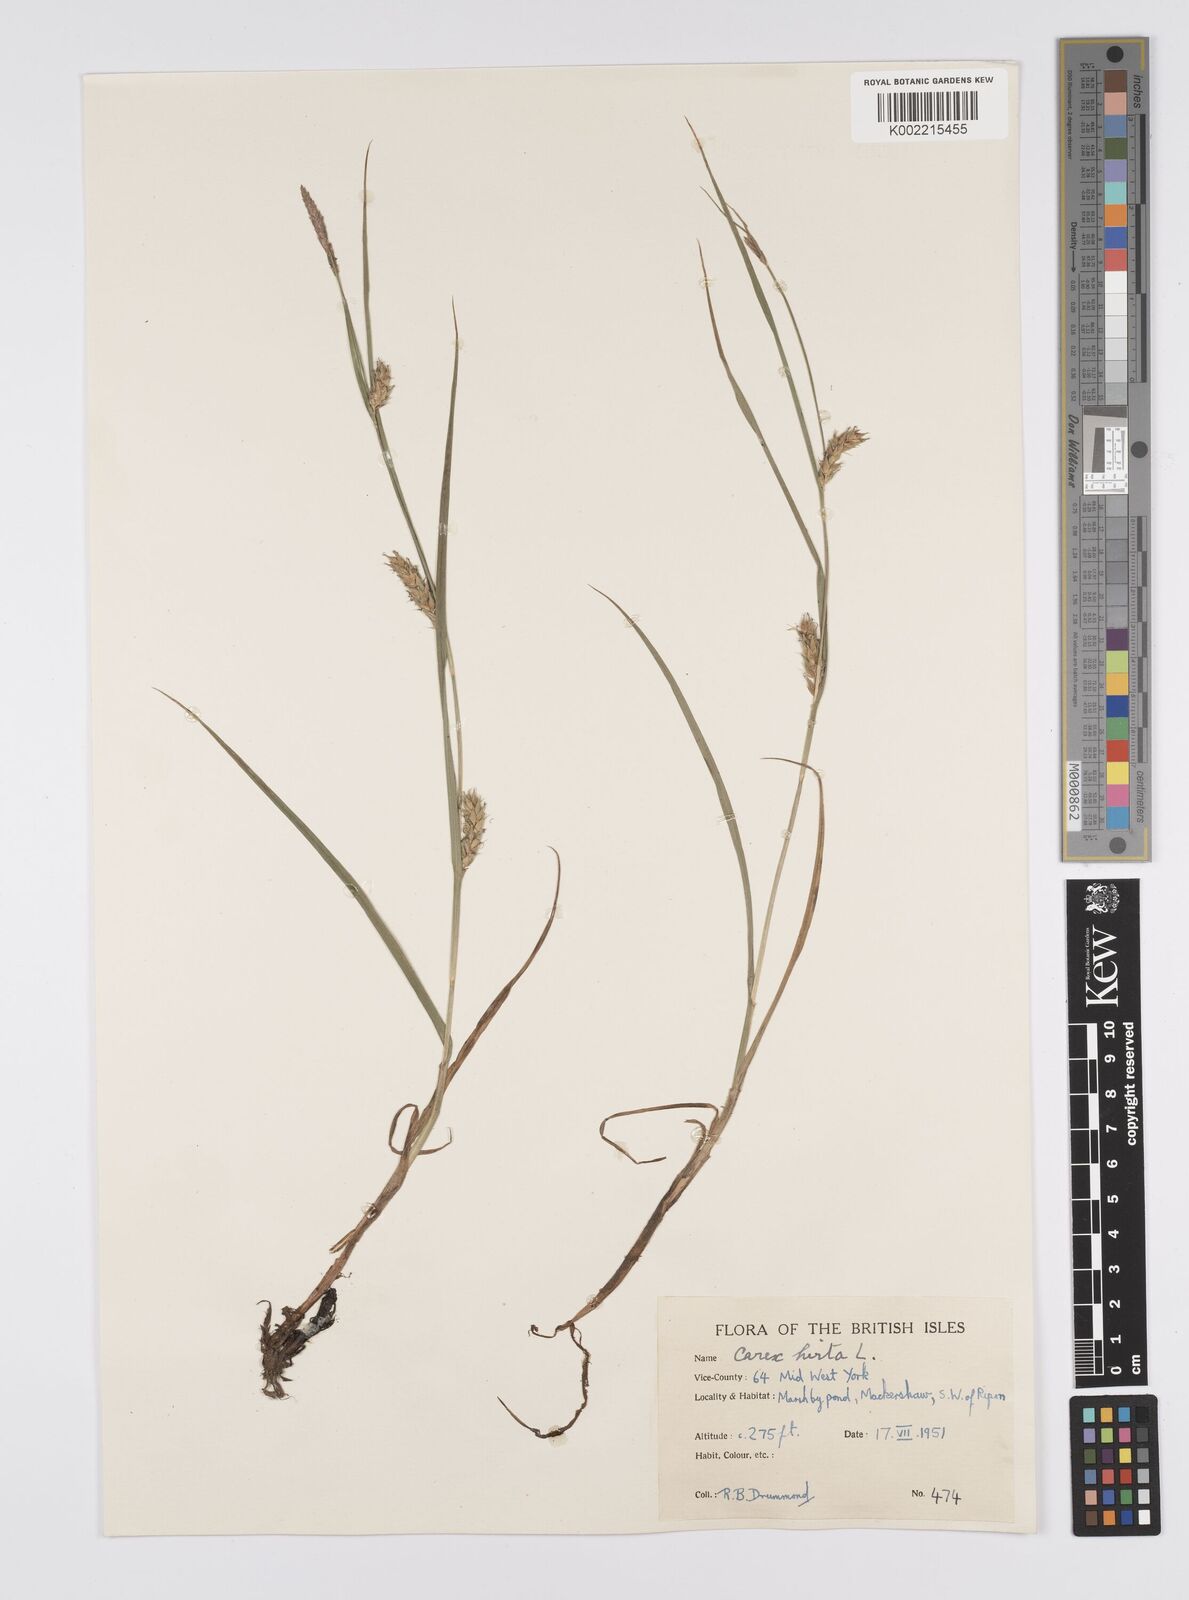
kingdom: Plantae
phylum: Tracheophyta
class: Liliopsida
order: Poales
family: Cyperaceae
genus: Carex
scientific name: Carex hirta
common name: Hairy sedge
